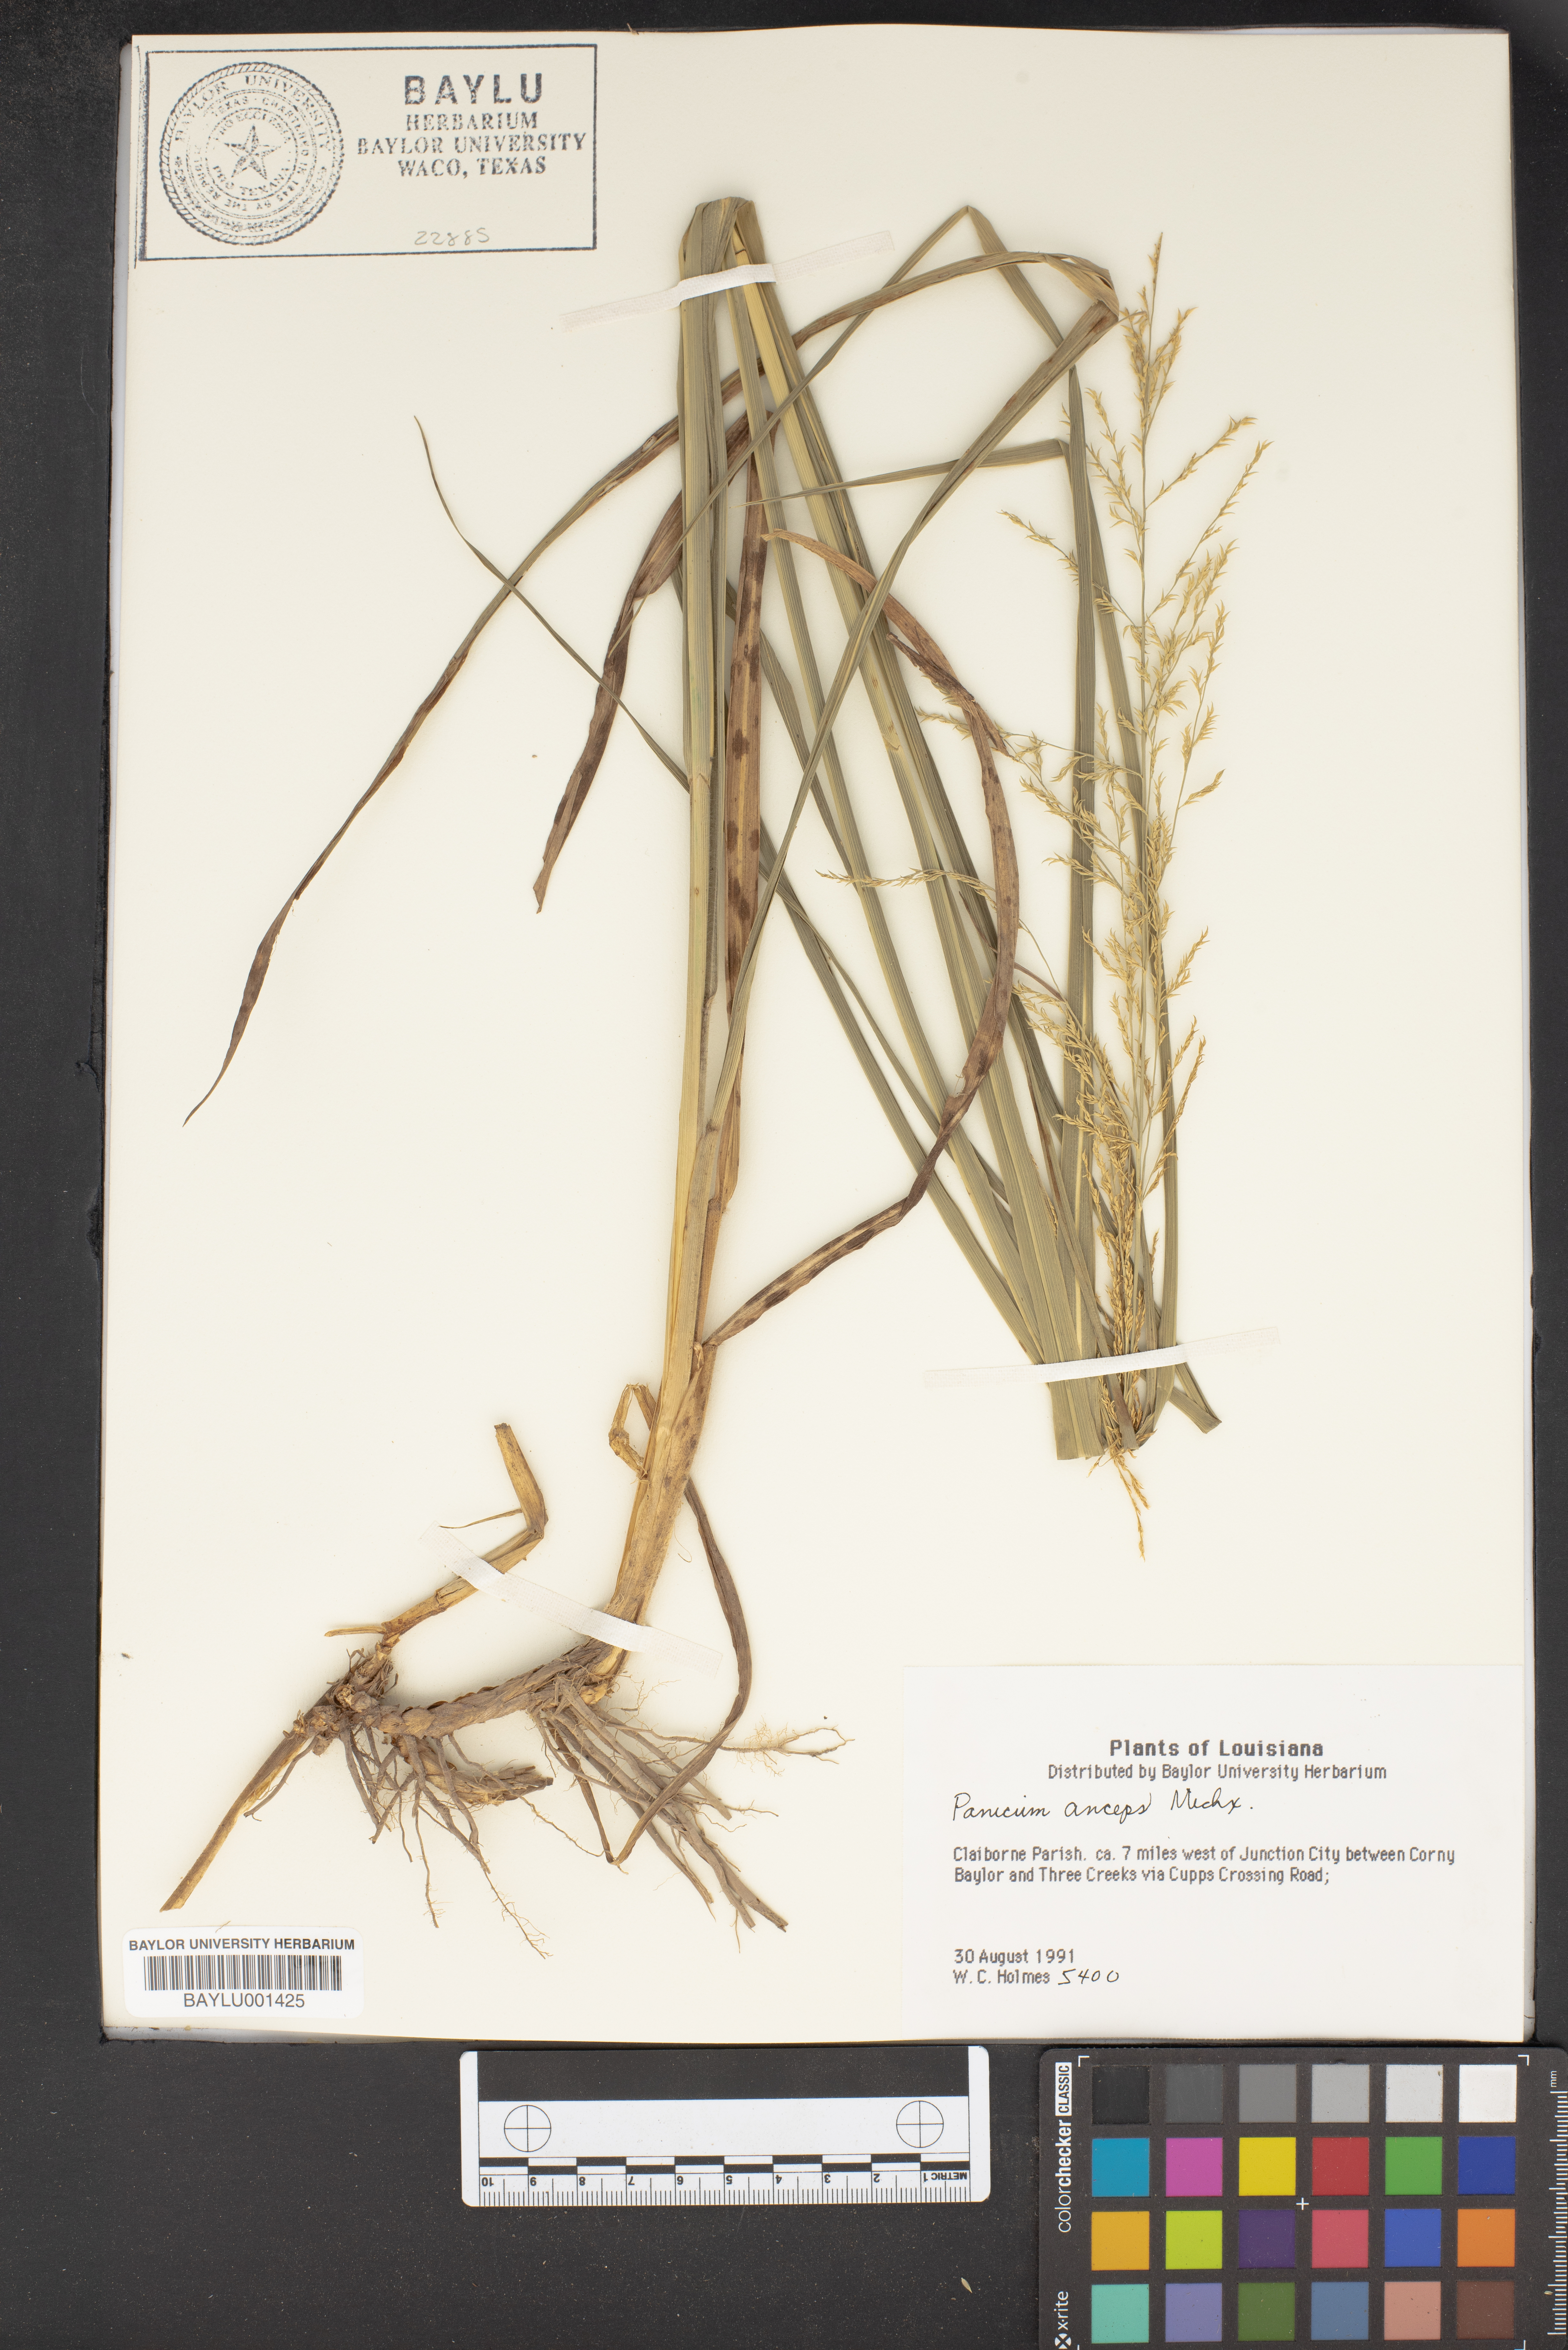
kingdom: Plantae
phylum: Tracheophyta
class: Liliopsida
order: Poales
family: Poaceae
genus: Coleataenia
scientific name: Coleataenia anceps
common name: Beaked panic grass
